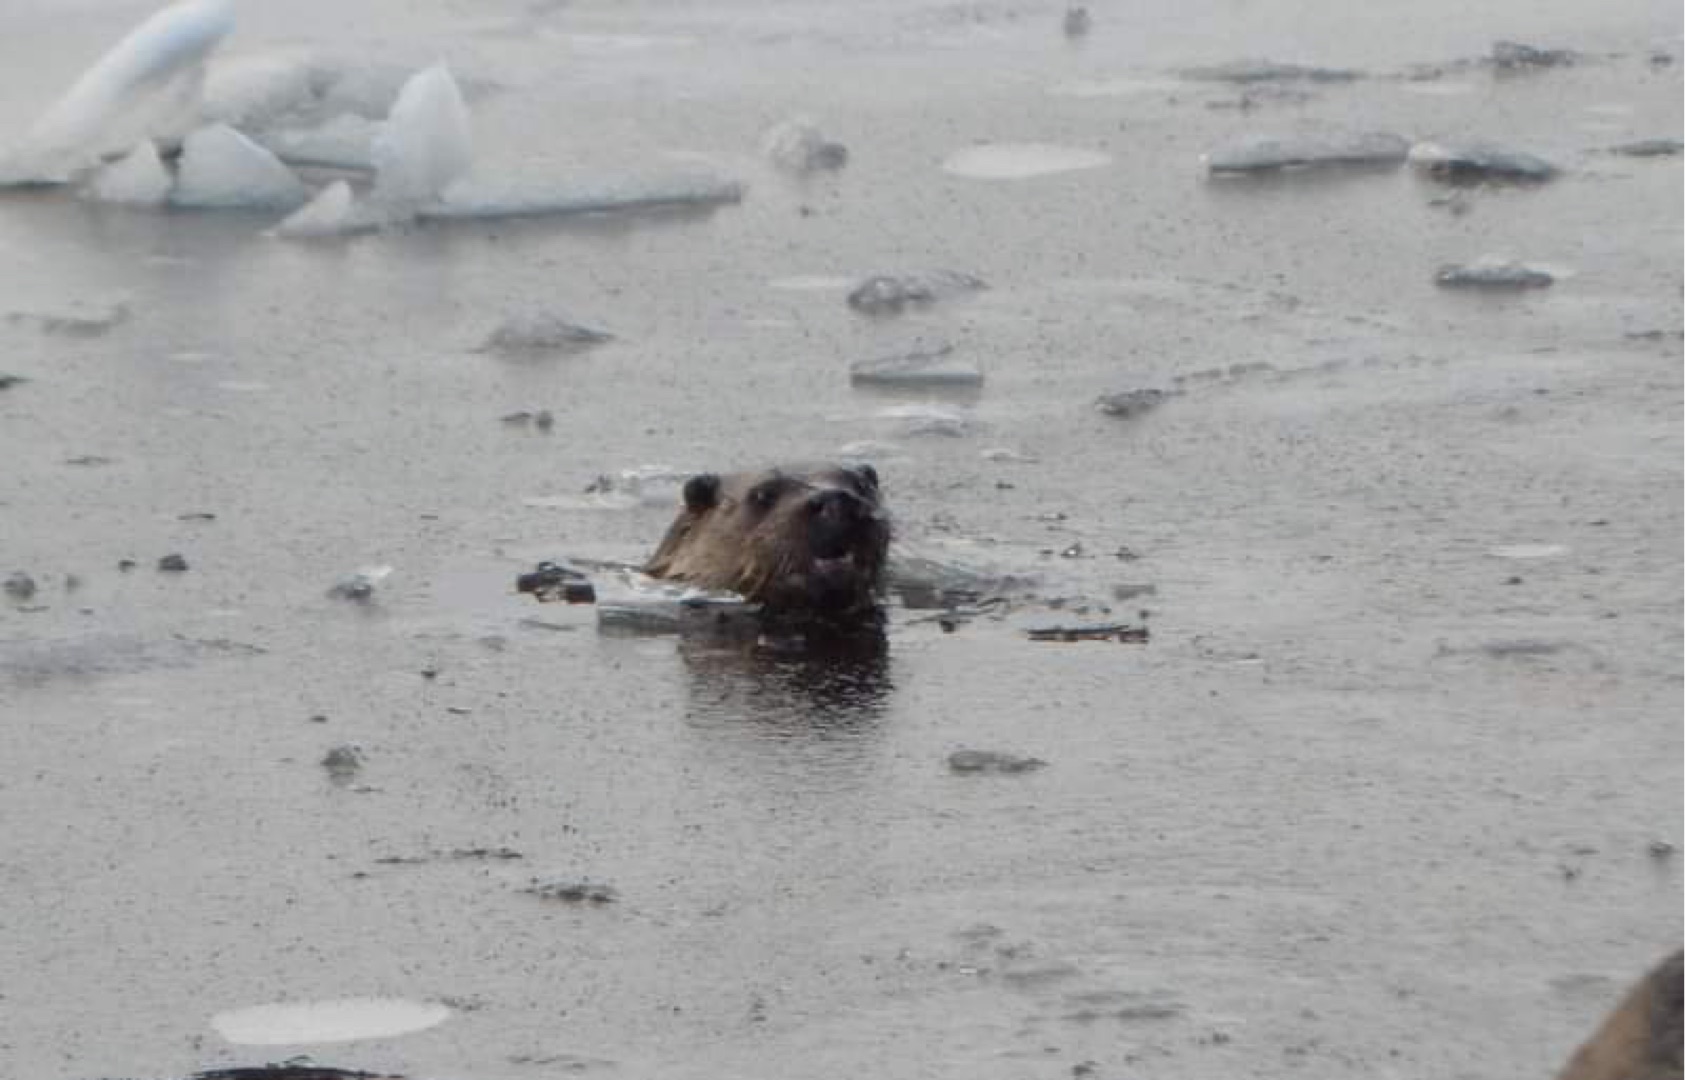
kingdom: Animalia
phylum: Chordata
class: Mammalia
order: Carnivora
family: Mustelidae
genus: Lutra
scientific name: Lutra lutra
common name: Odder
